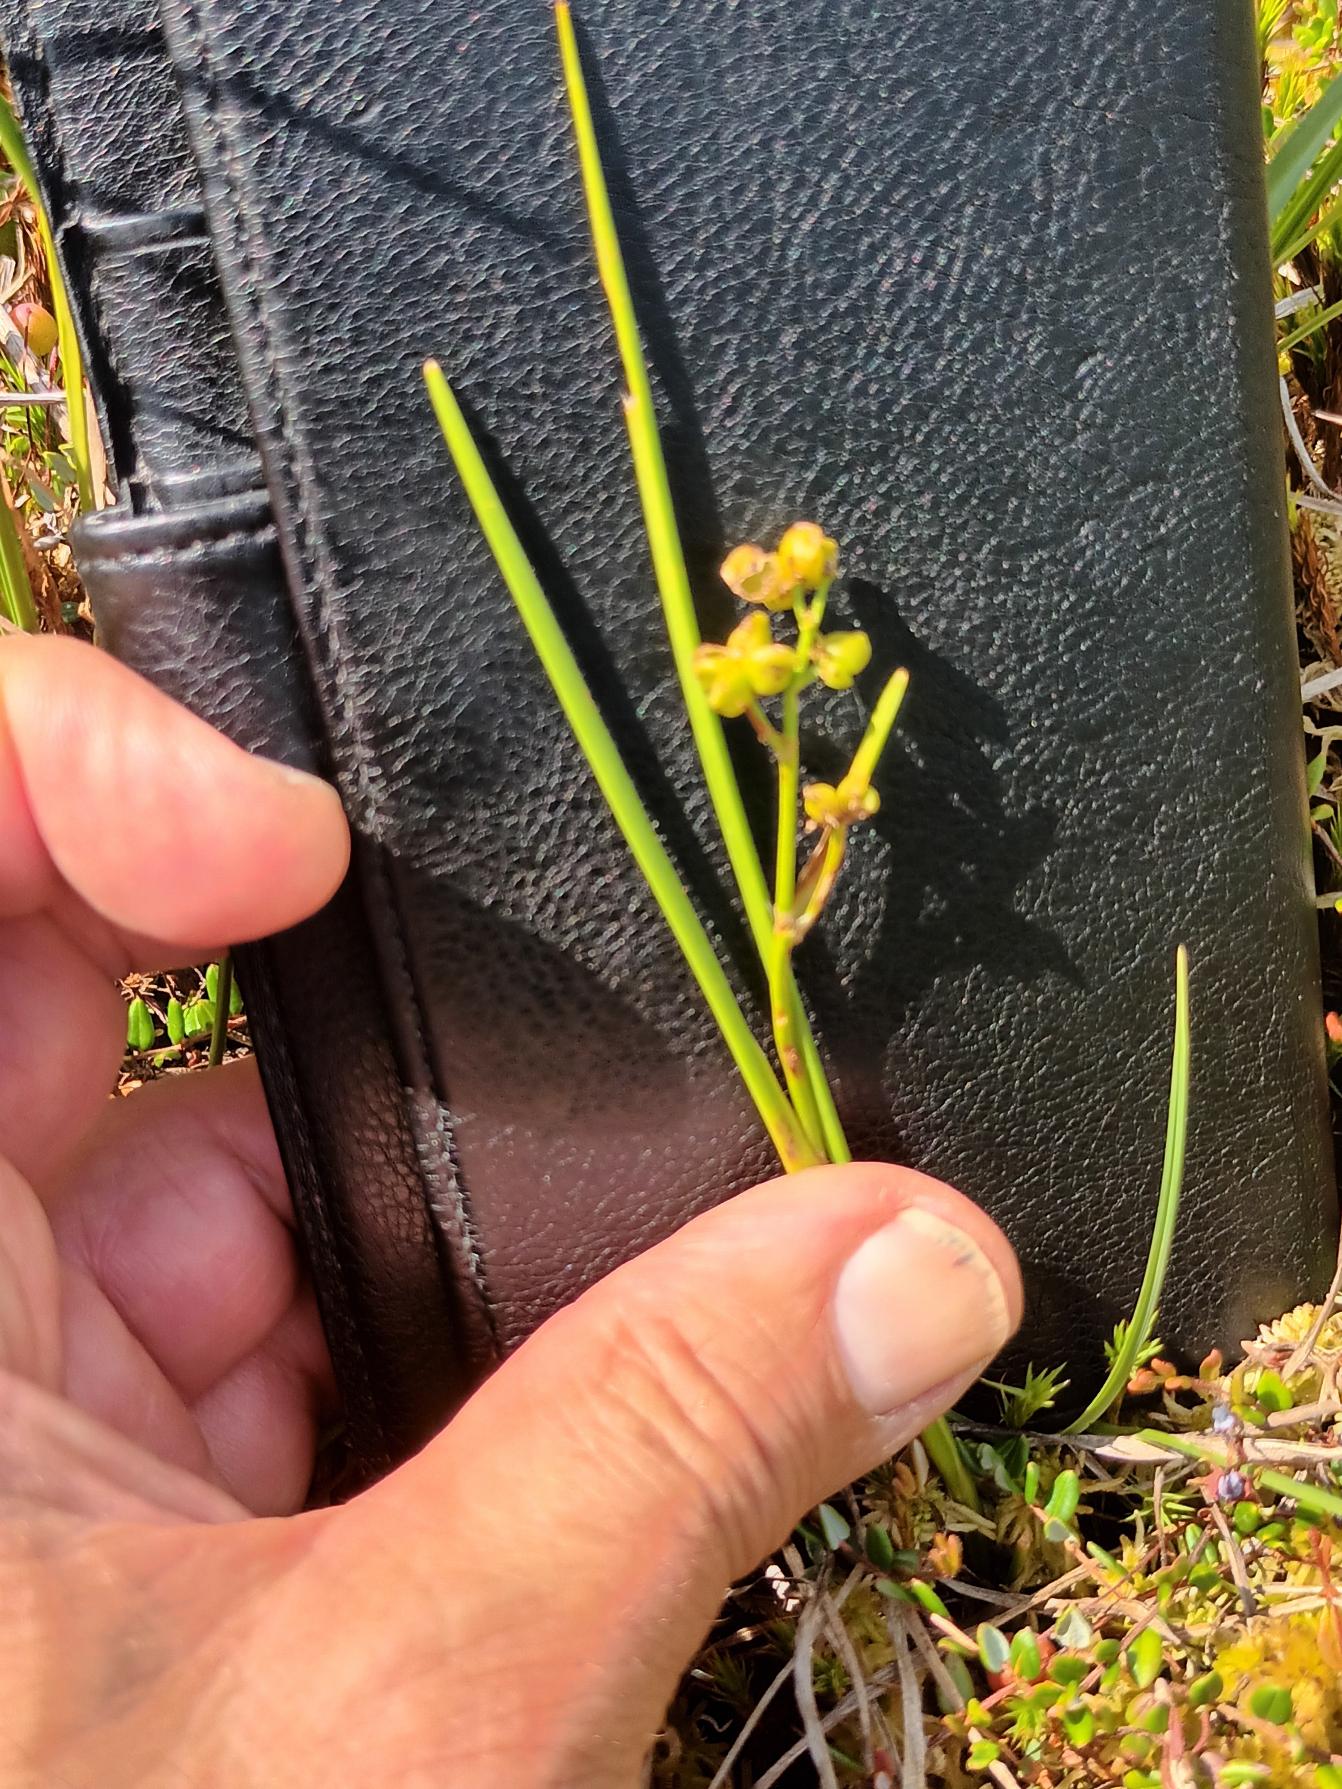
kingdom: Plantae
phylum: Tracheophyta
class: Liliopsida
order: Alismatales
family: Scheuchzeriaceae
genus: Scheuchzeria
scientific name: Scheuchzeria palustris
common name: Blomstersiv
